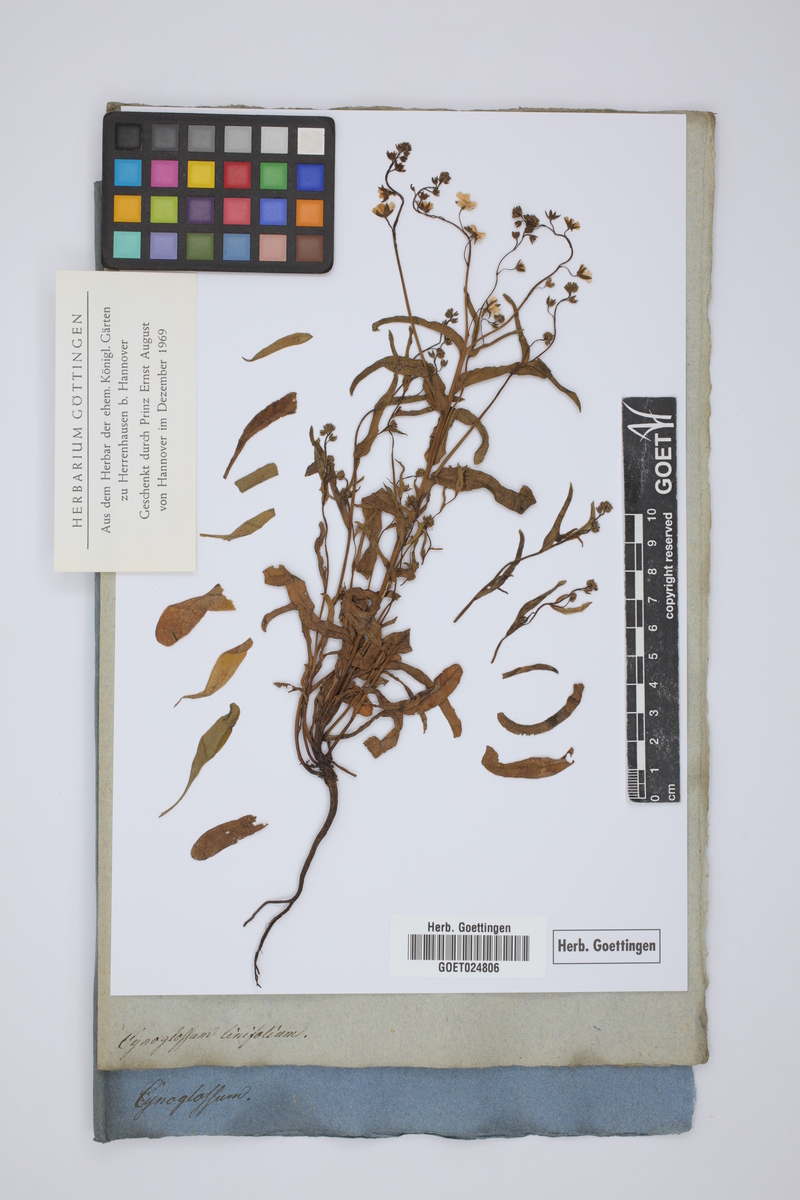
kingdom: Plantae
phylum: Tracheophyta
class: Magnoliopsida
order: Boraginales
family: Boraginaceae
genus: Iberodes
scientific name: Iberodes linifolia
